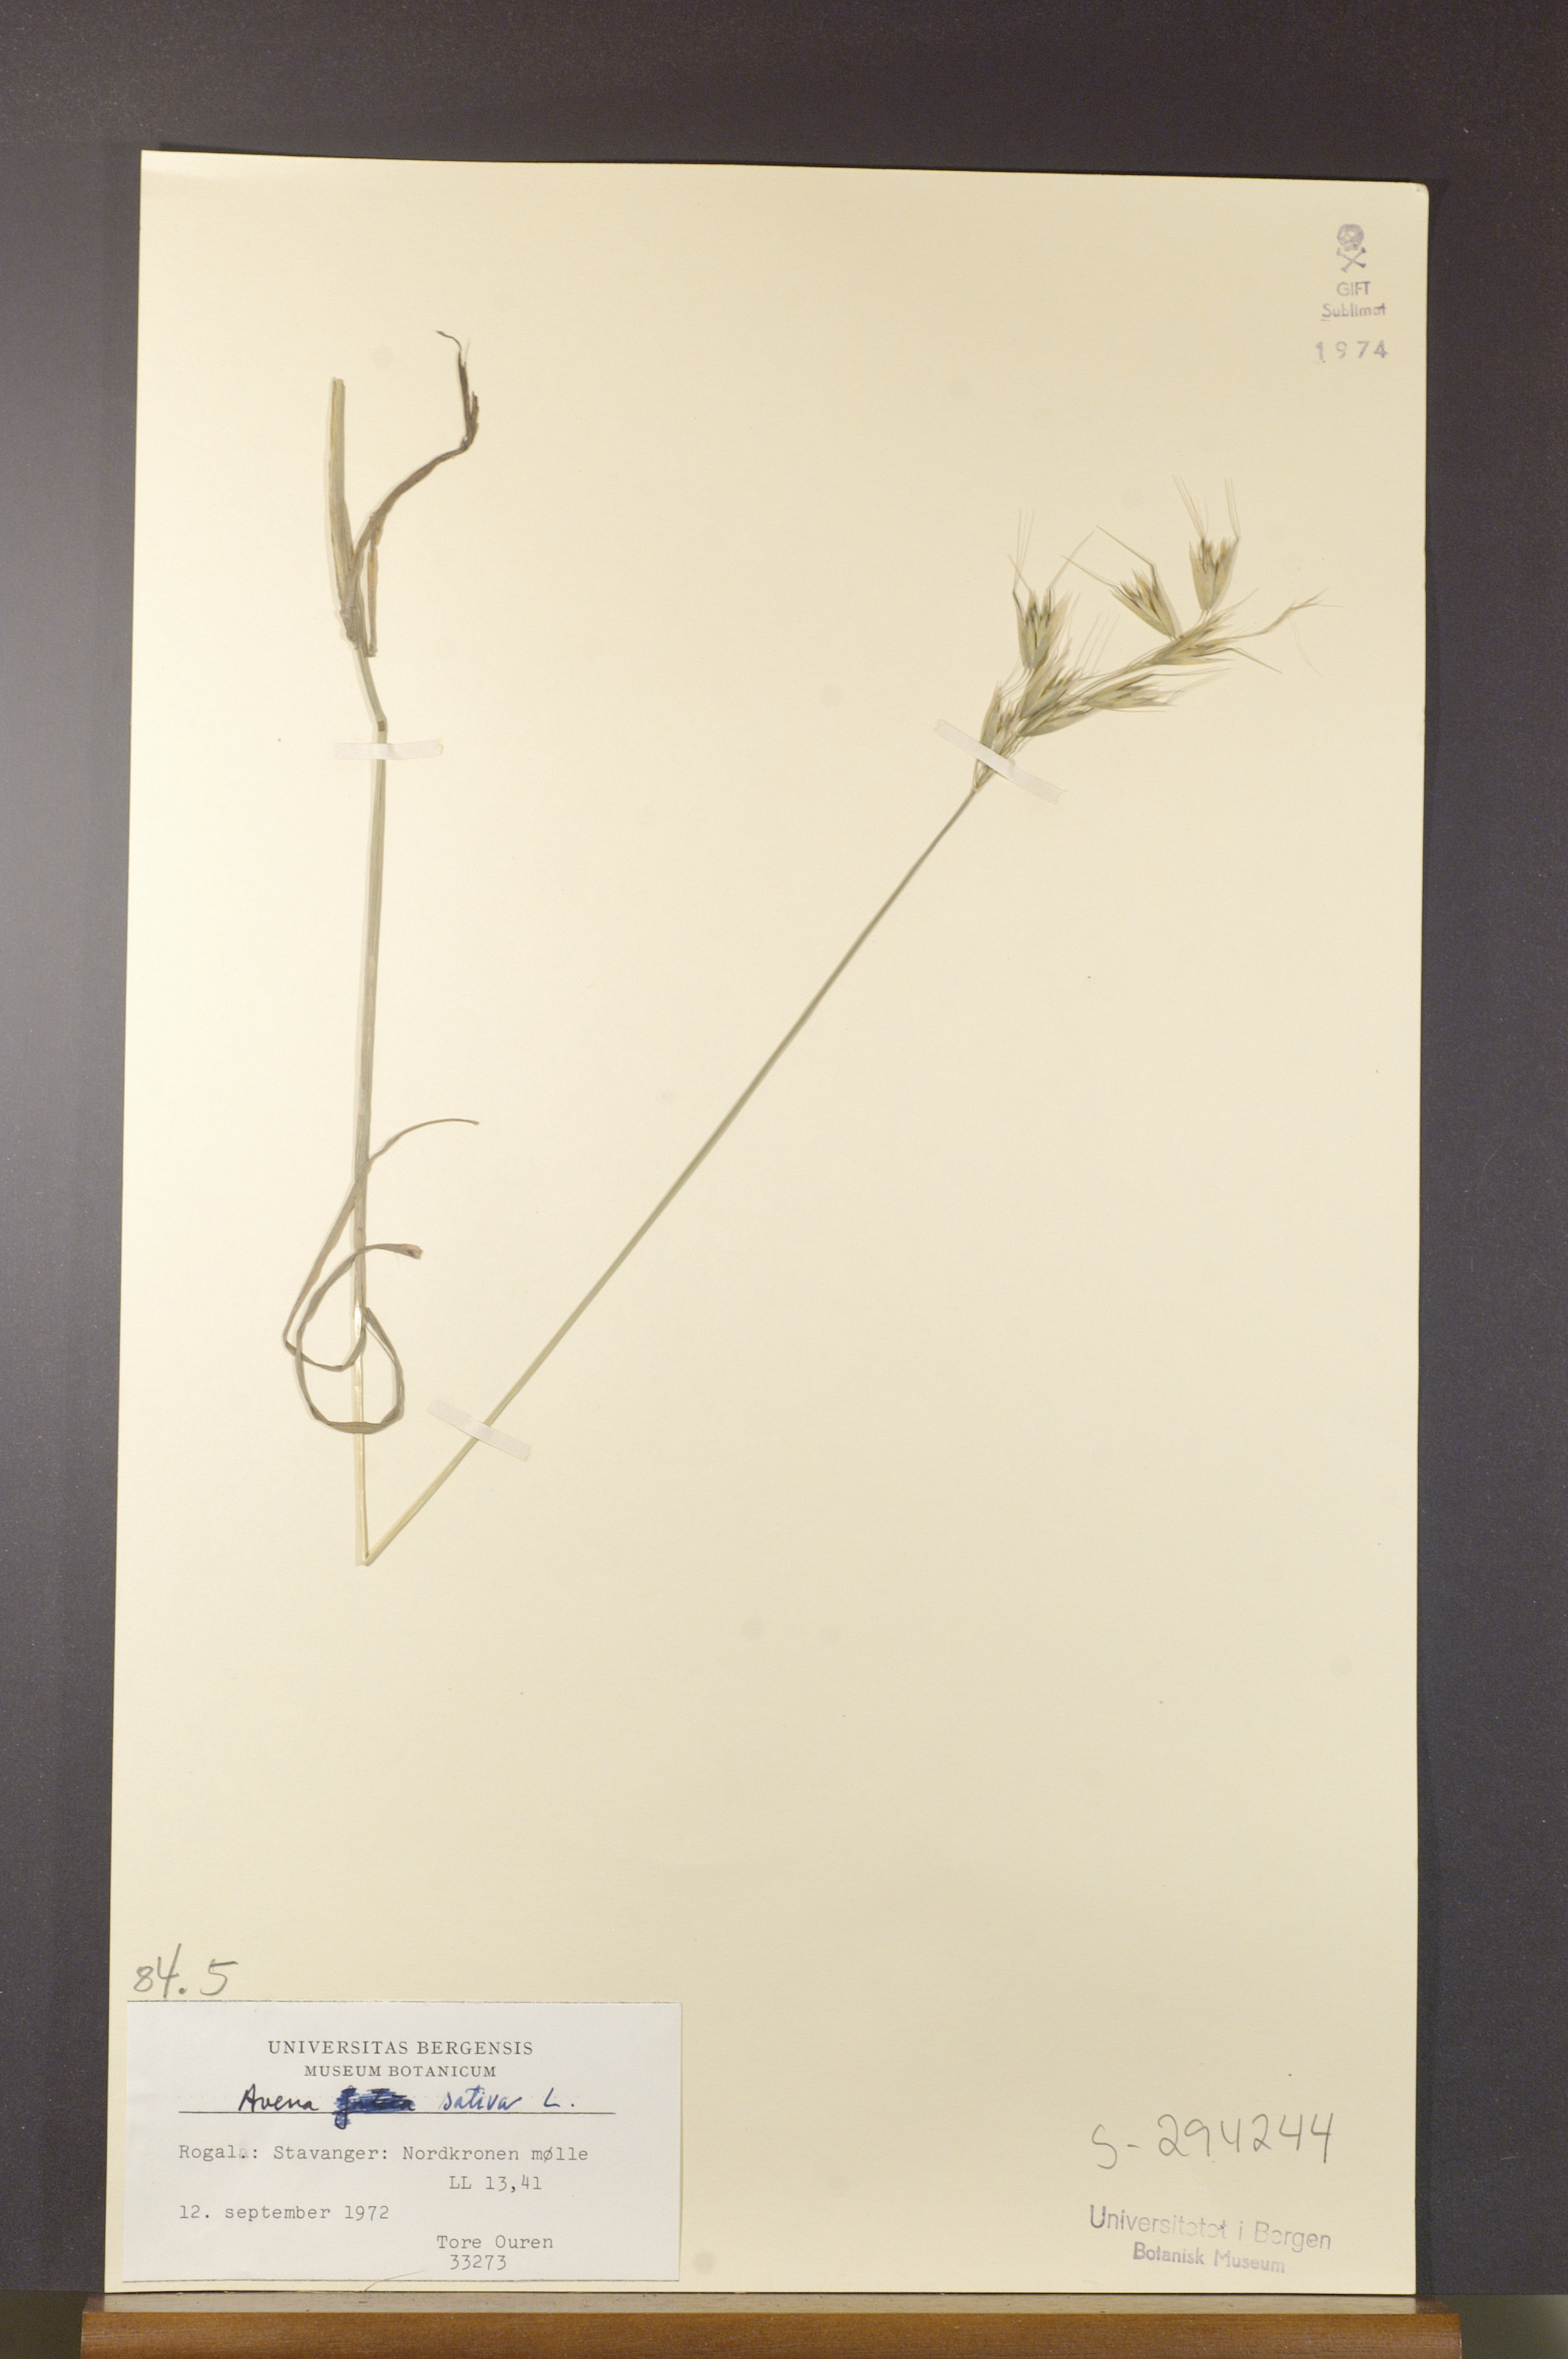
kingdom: Plantae
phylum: Tracheophyta
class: Liliopsida
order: Poales
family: Poaceae
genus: Avena
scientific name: Avena sativa
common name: Oat
